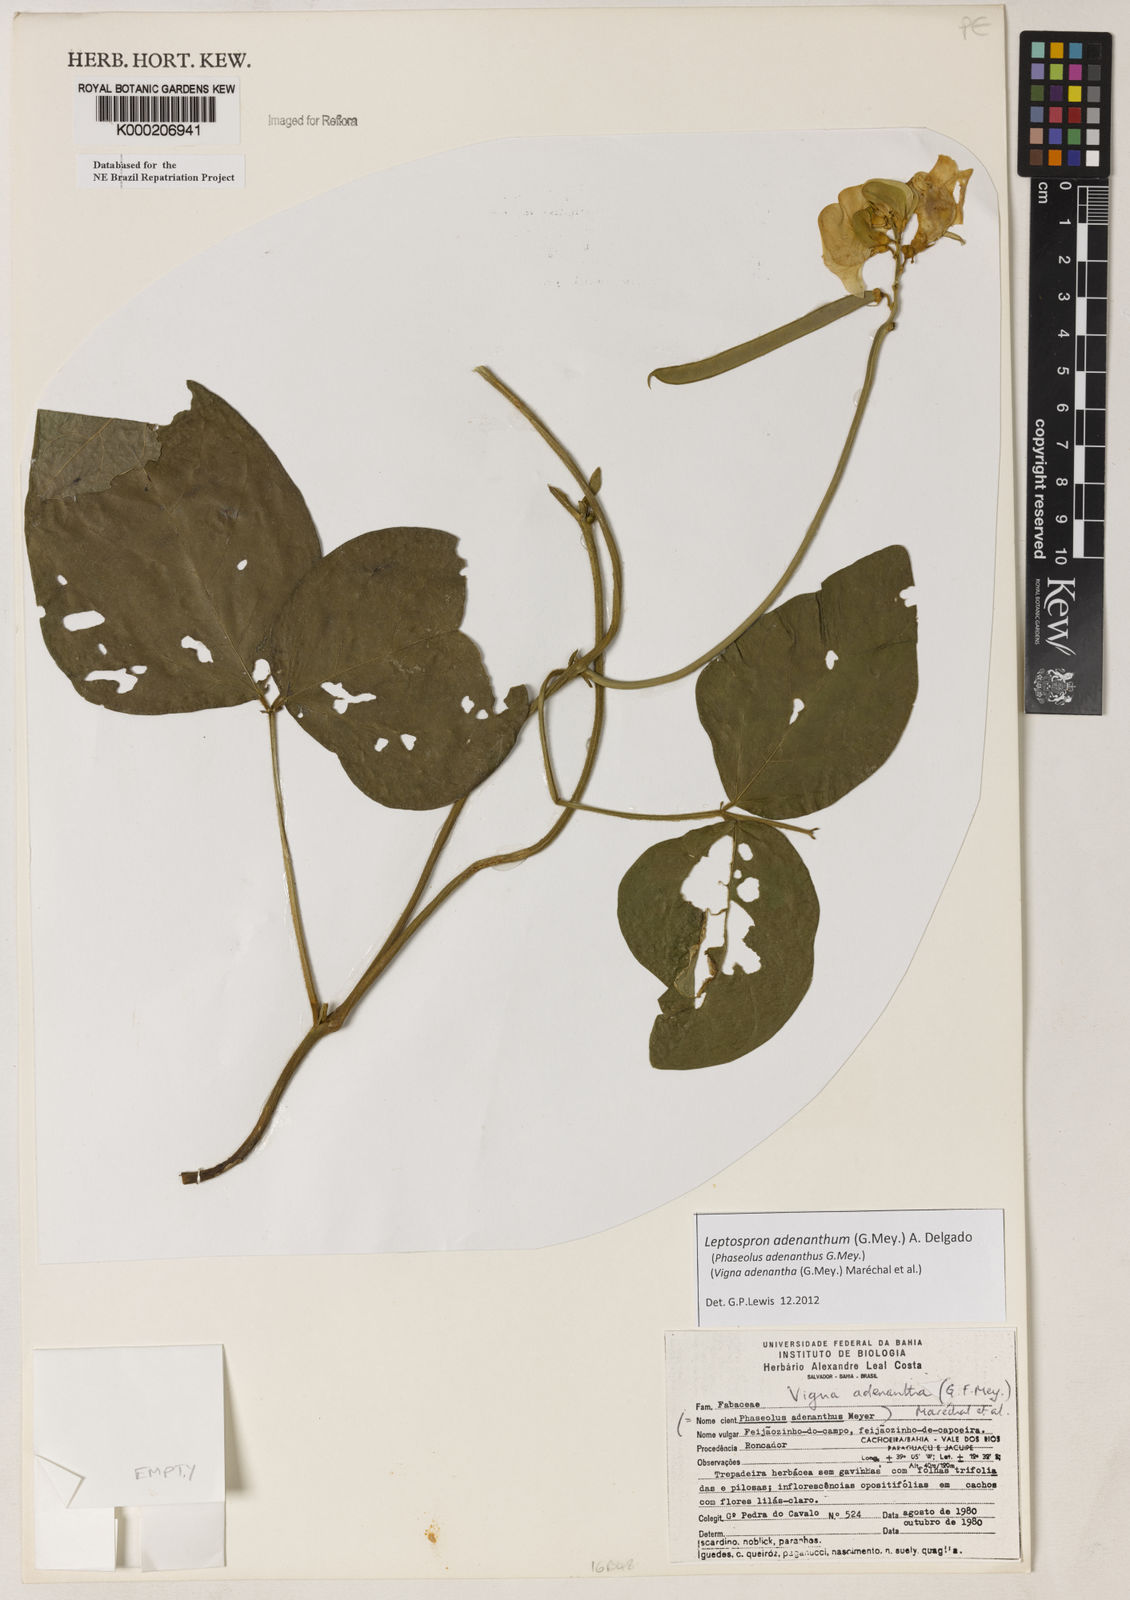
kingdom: Plantae
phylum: Tracheophyta
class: Magnoliopsida
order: Fabales
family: Fabaceae
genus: Vigna
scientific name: Vigna
